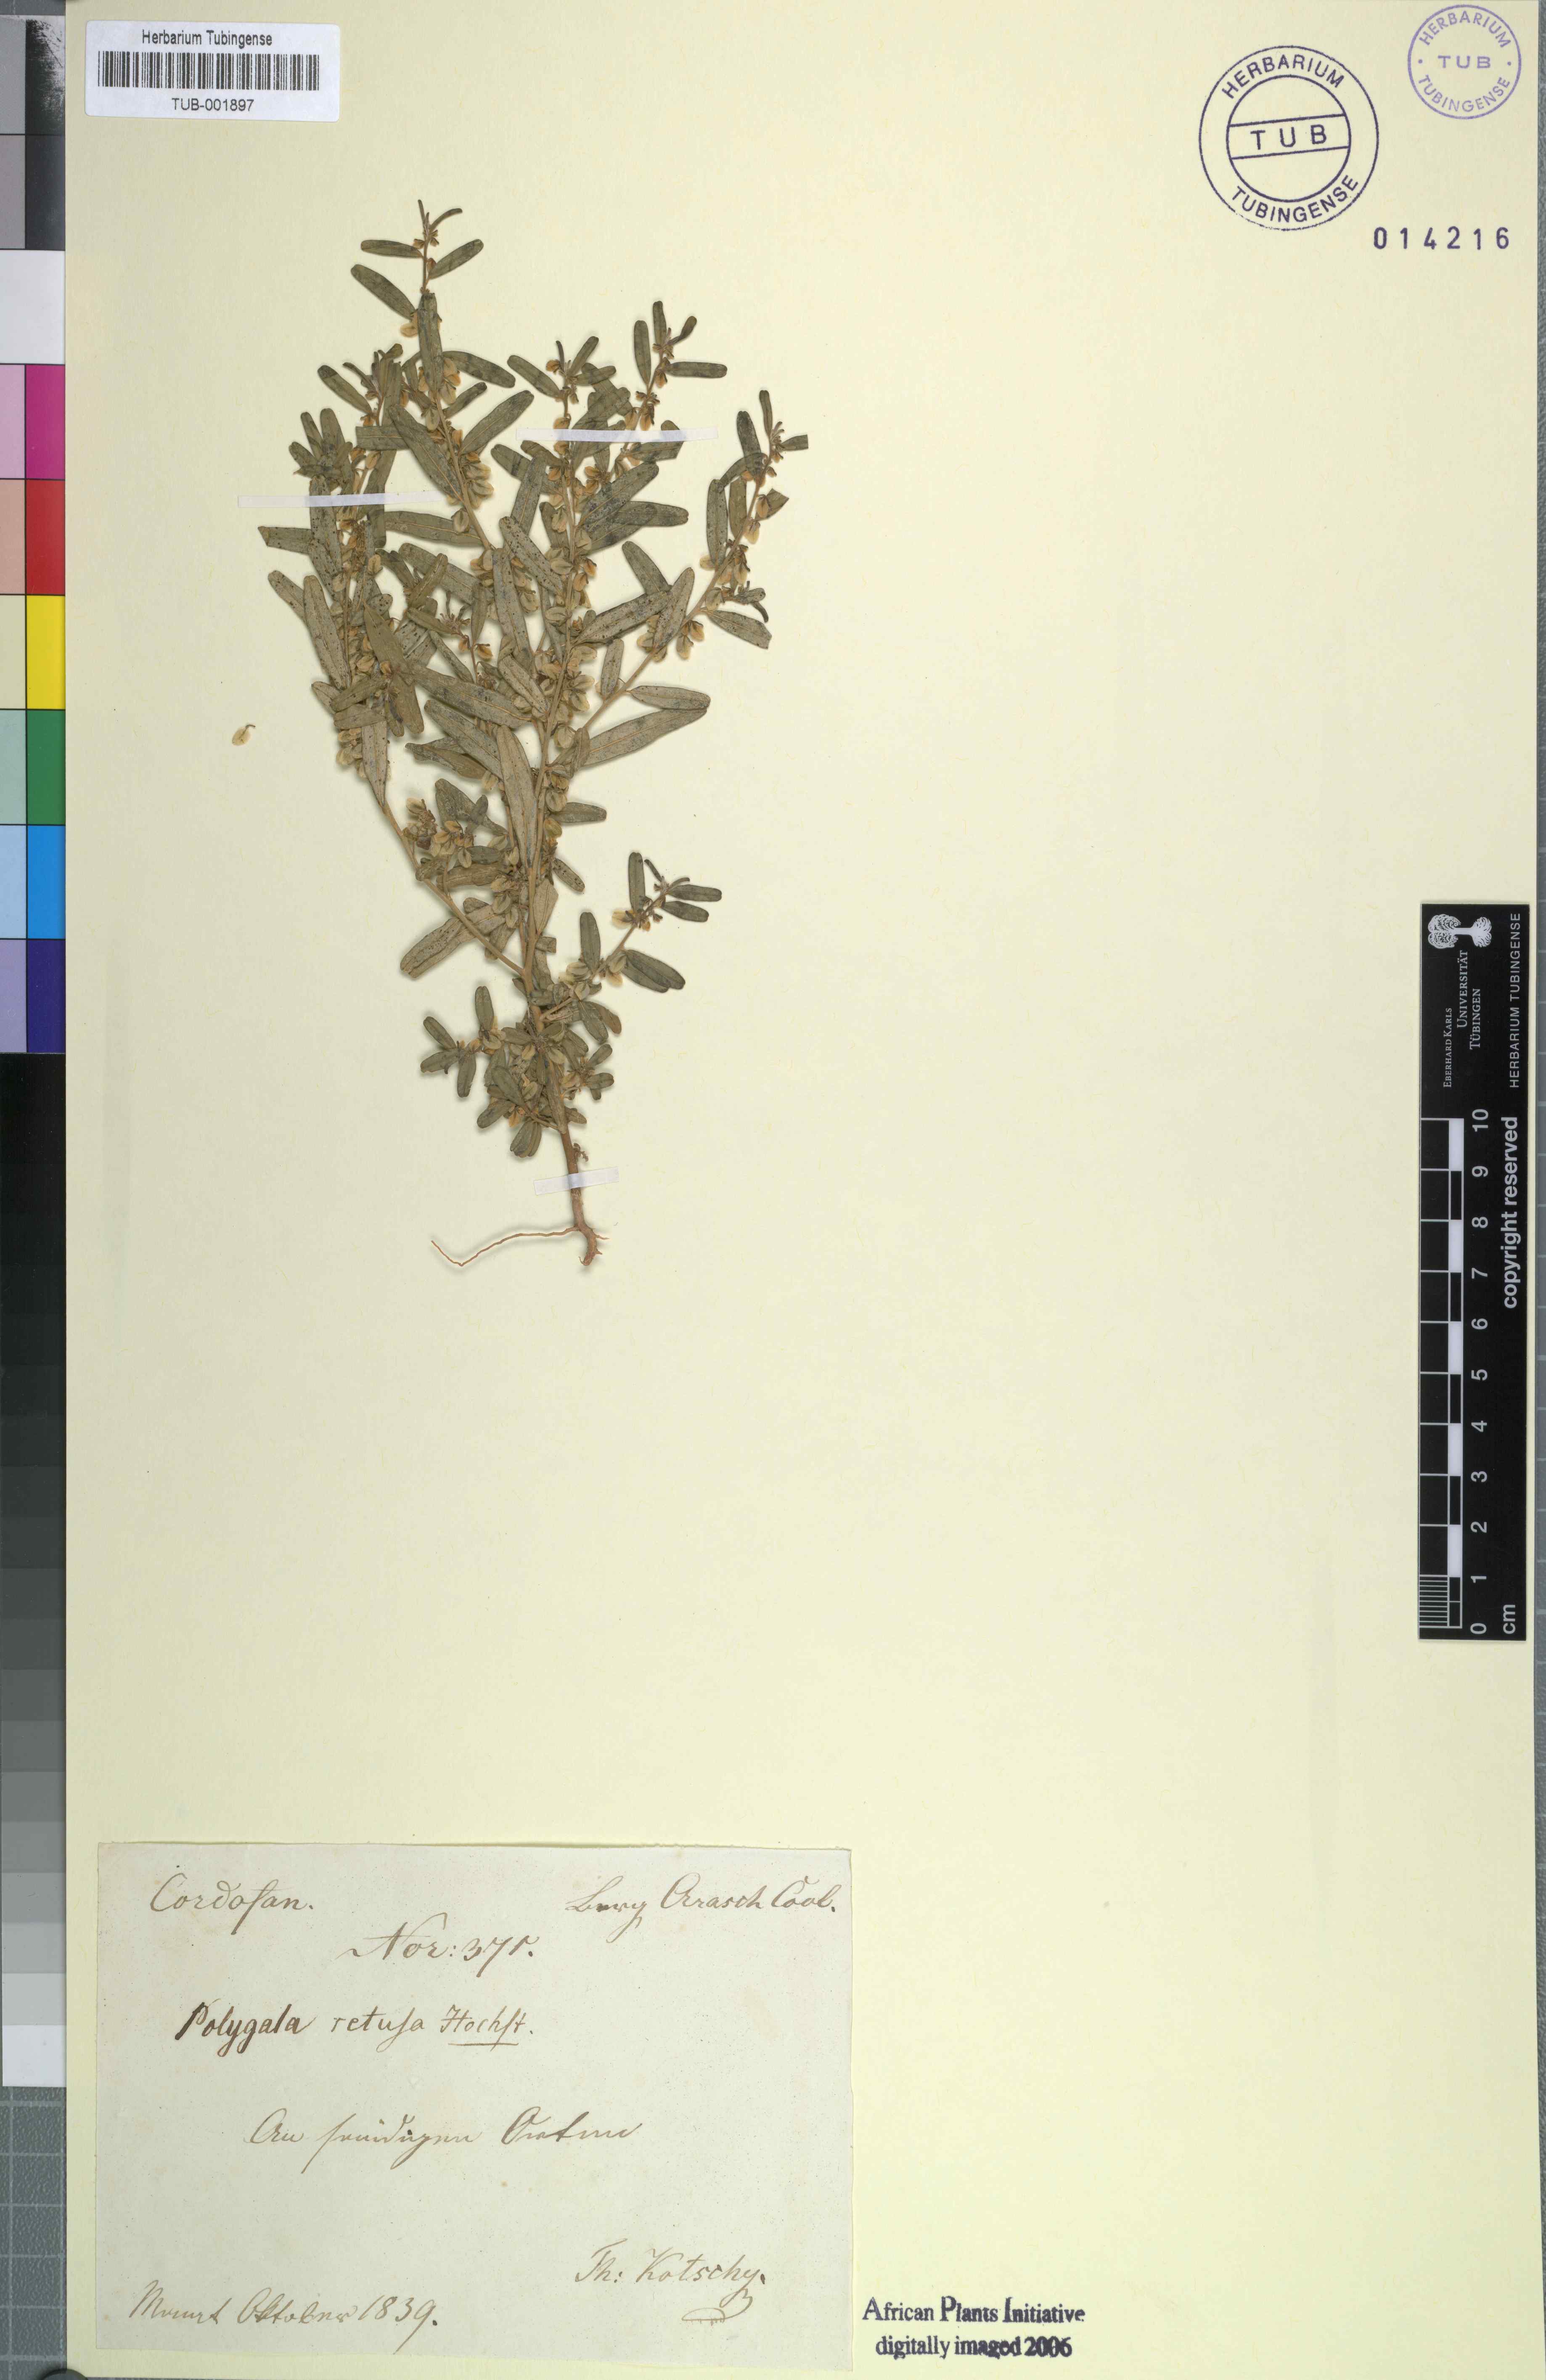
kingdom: Plantae
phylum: Tracheophyta
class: Magnoliopsida
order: Fabales
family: Polygalaceae
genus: Polygala
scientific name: Polygala erioptera
